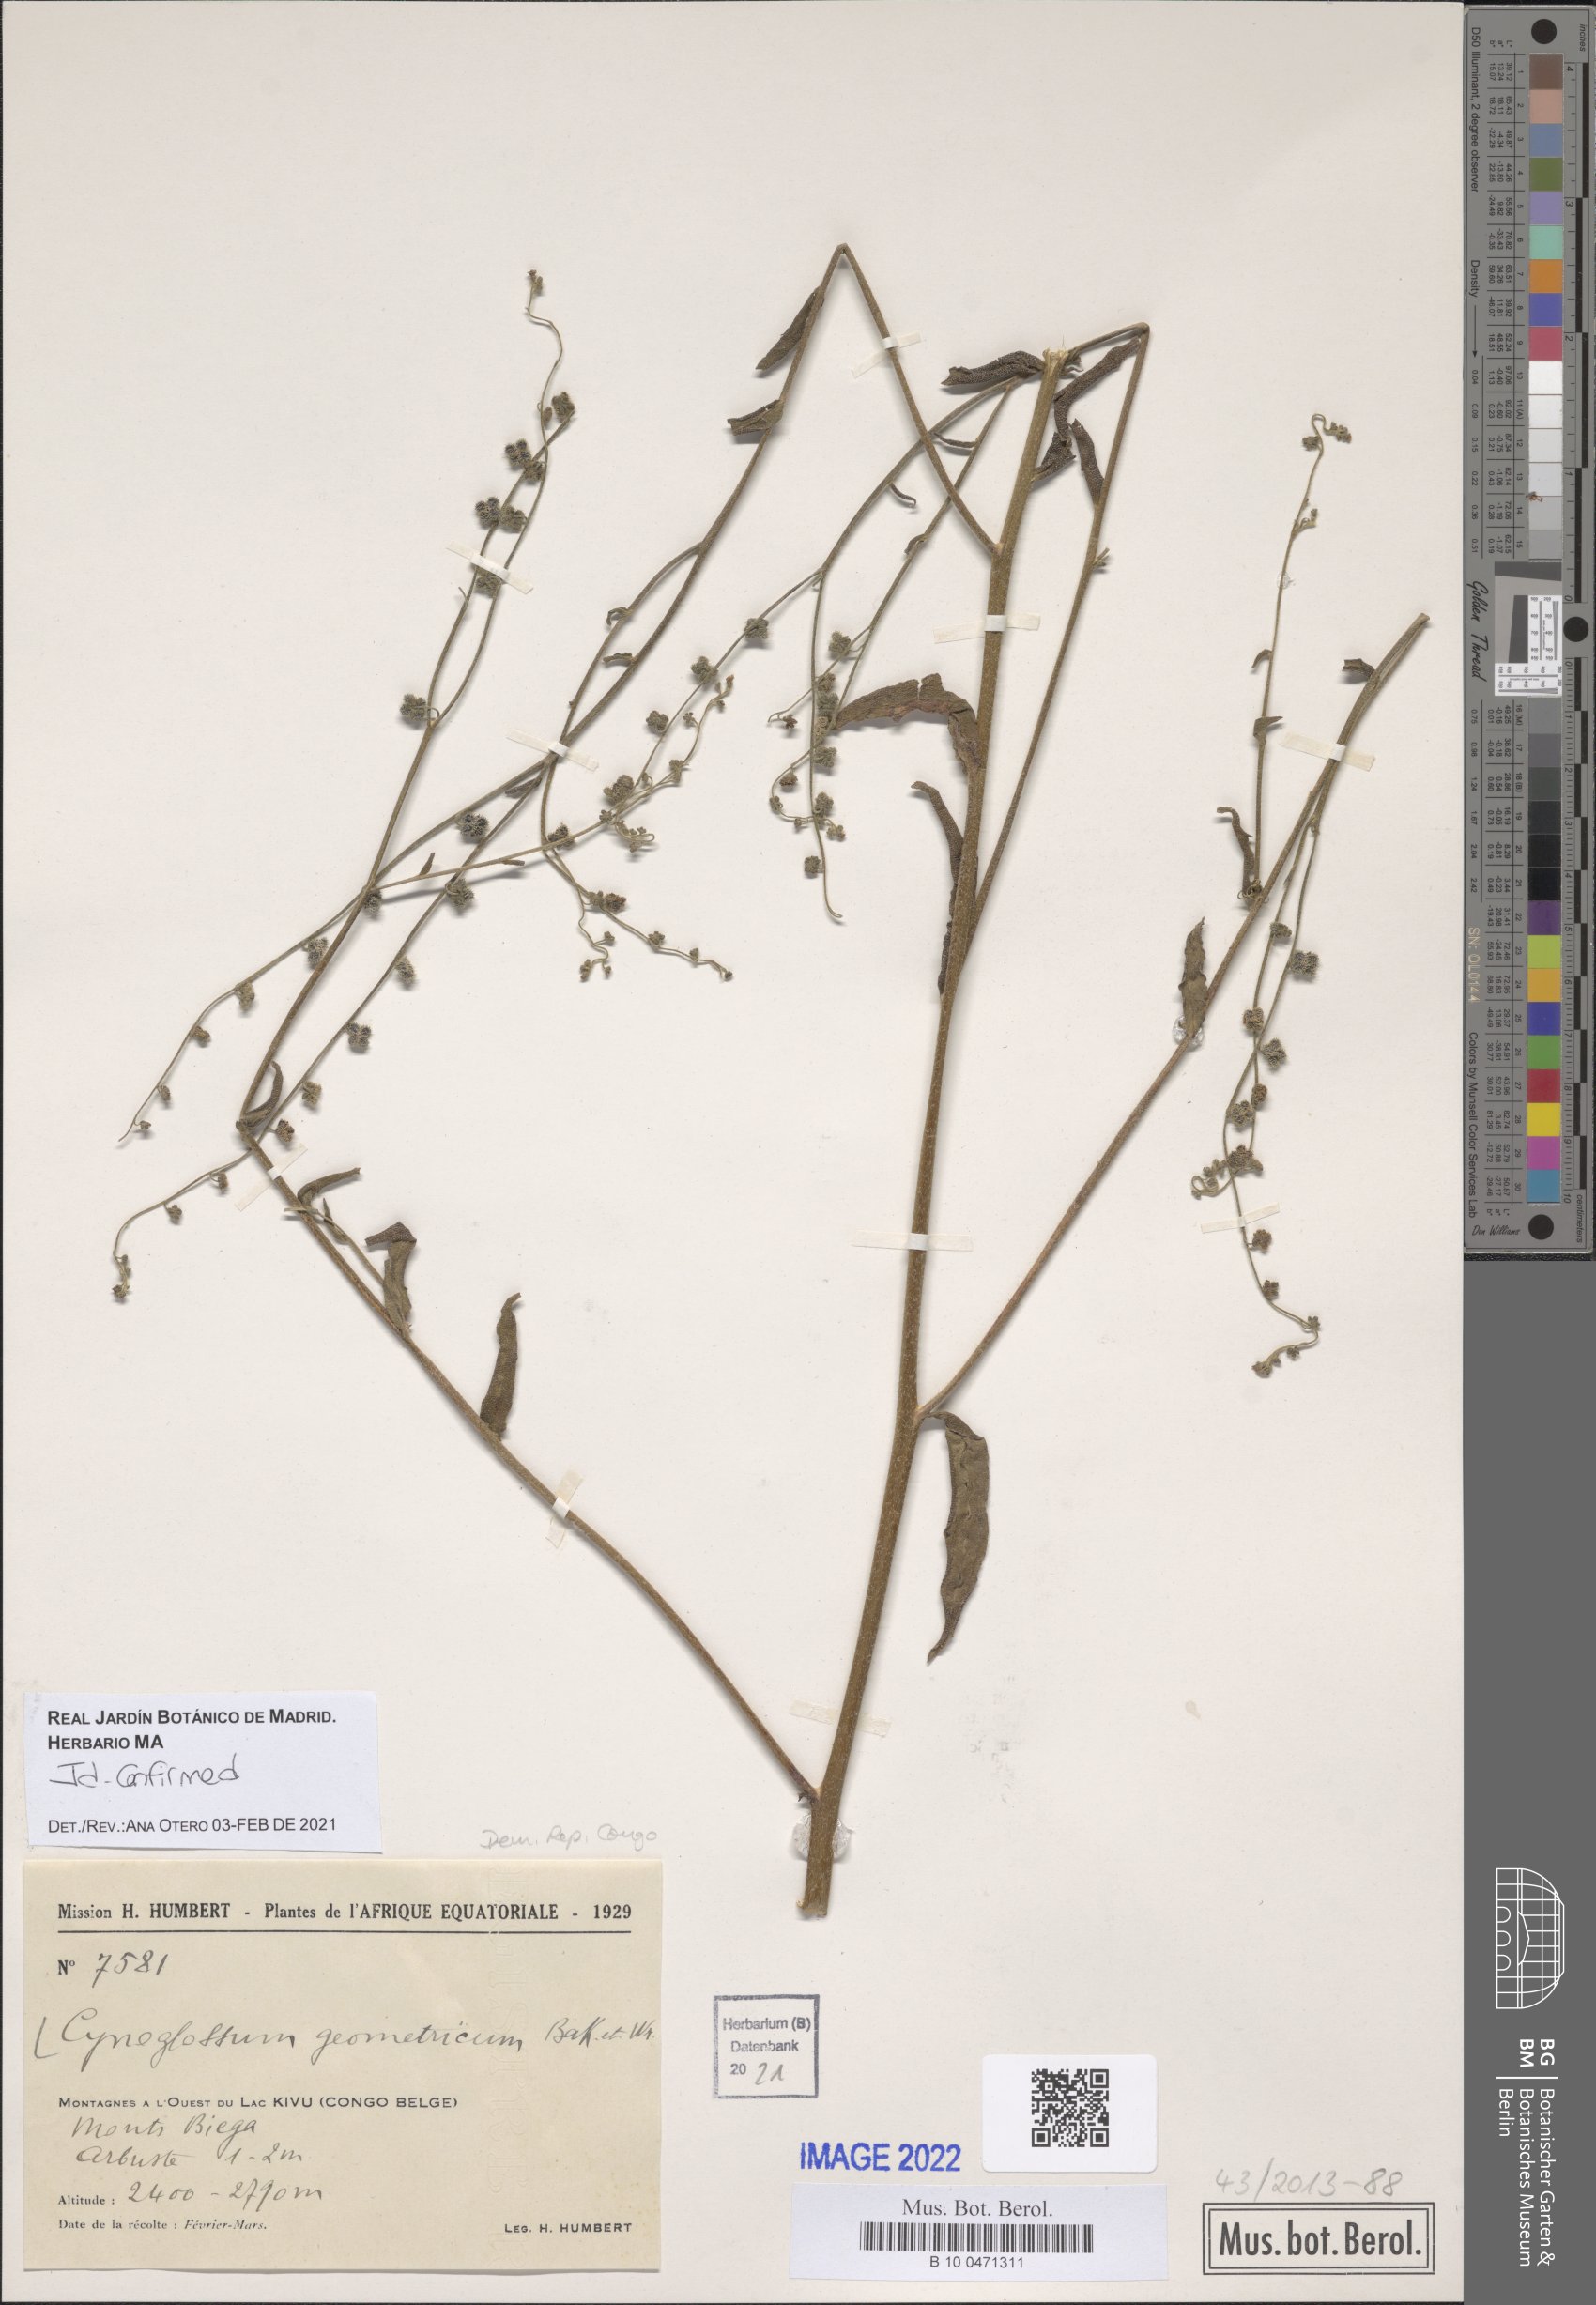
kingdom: Plantae
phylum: Tracheophyta
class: Magnoliopsida
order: Boraginales
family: Boraginaceae
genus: Paracynoglossum
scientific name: Paracynoglossum geometricum
